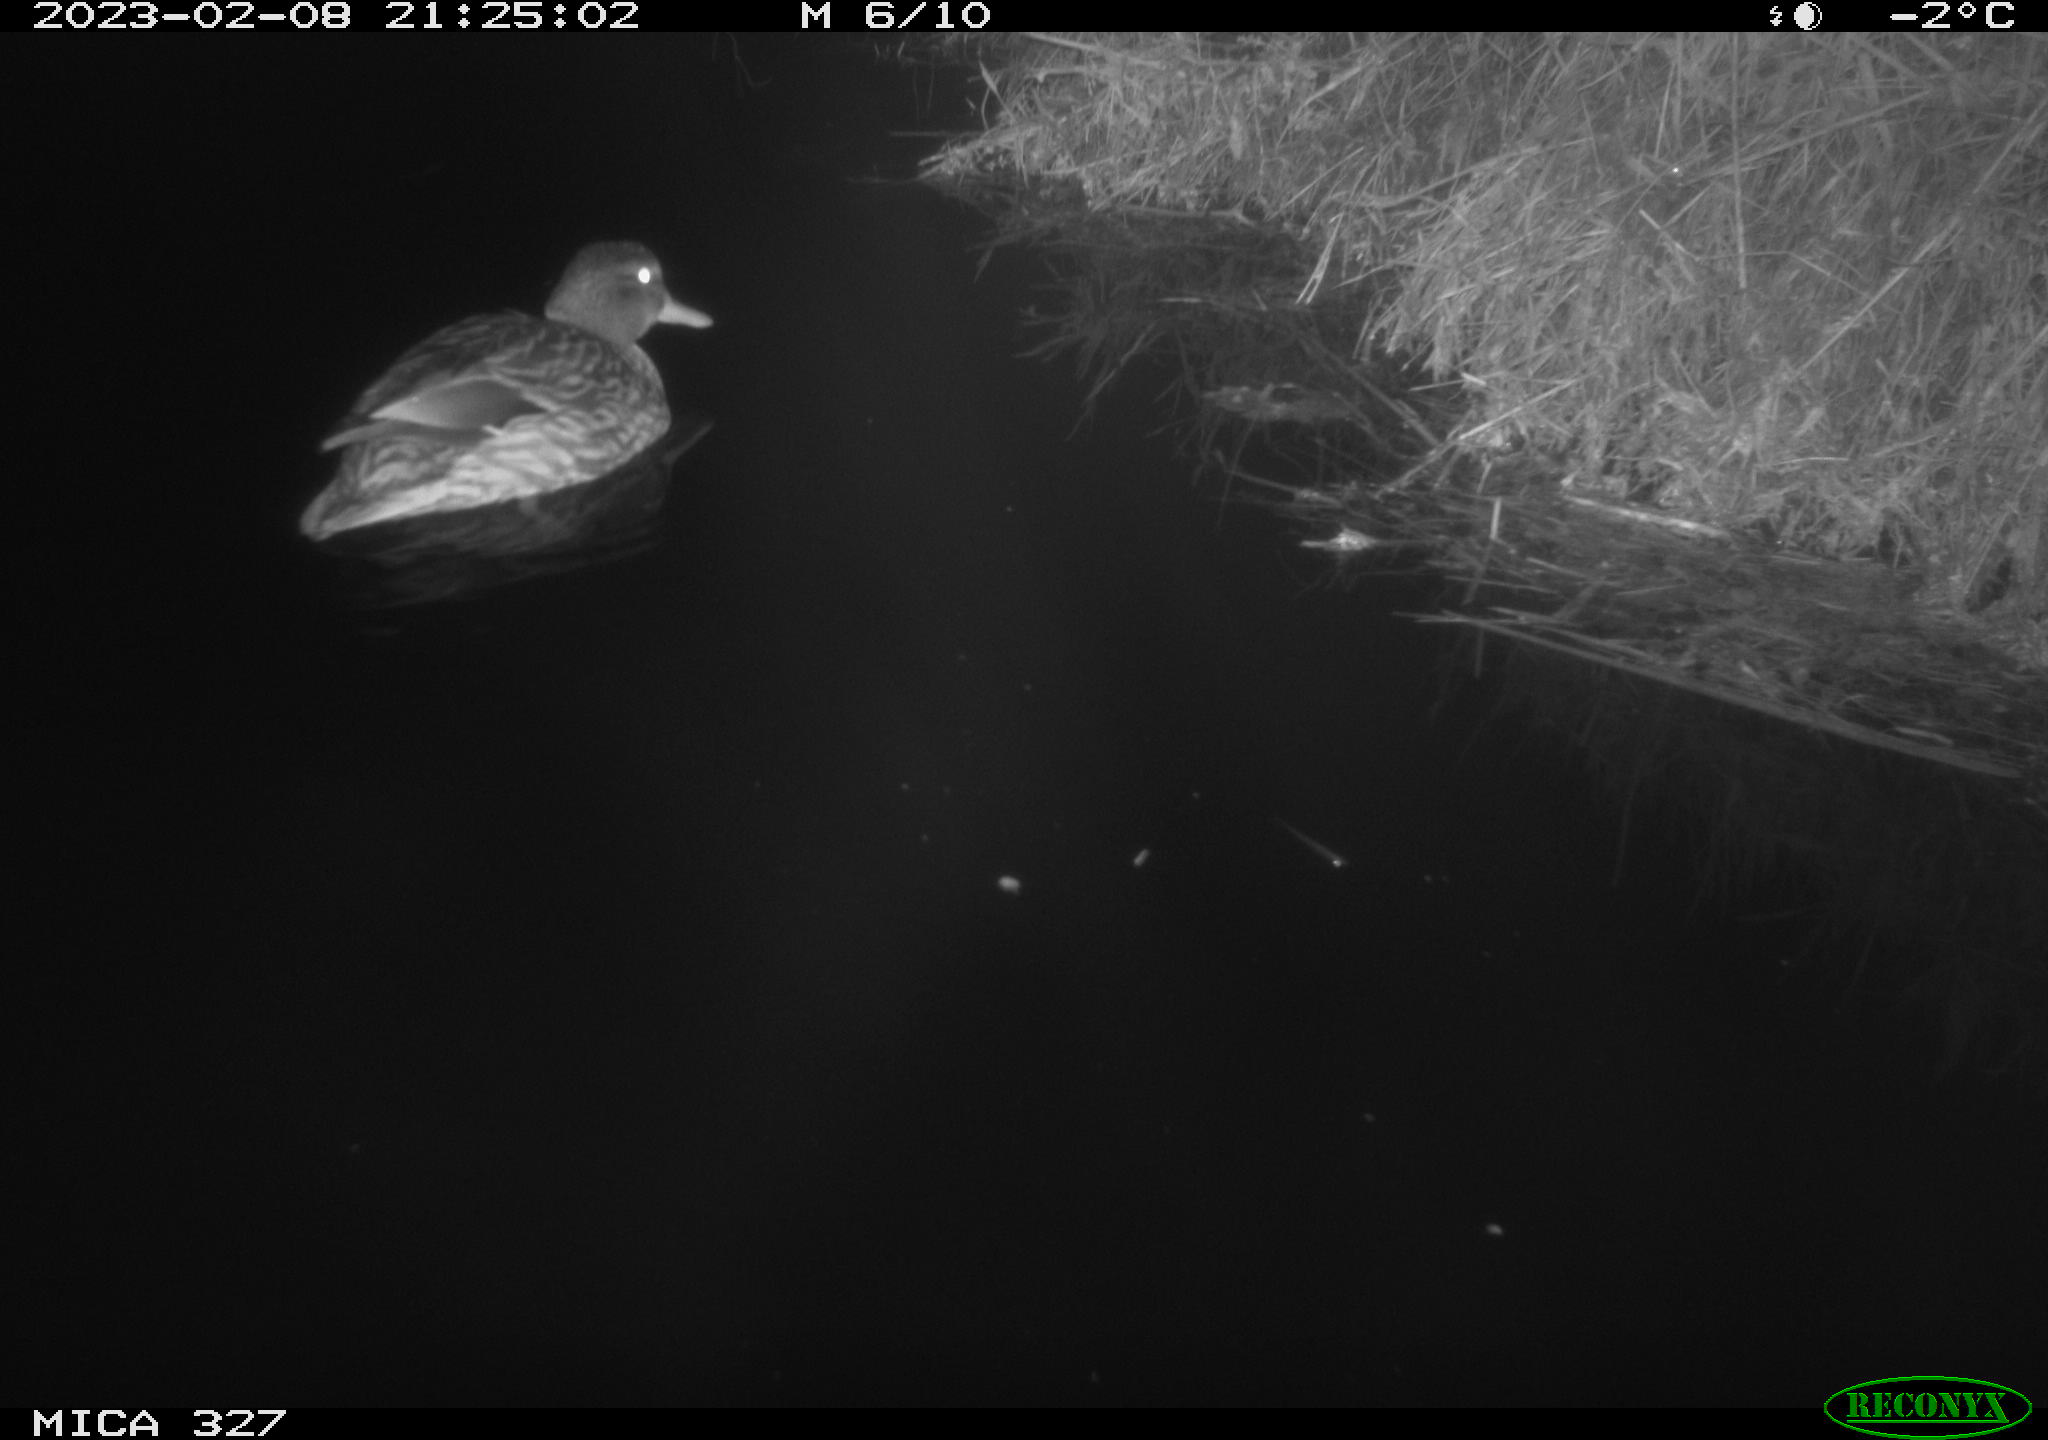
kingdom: Animalia
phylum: Chordata
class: Aves
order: Anseriformes
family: Anatidae
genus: Anas
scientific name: Anas
